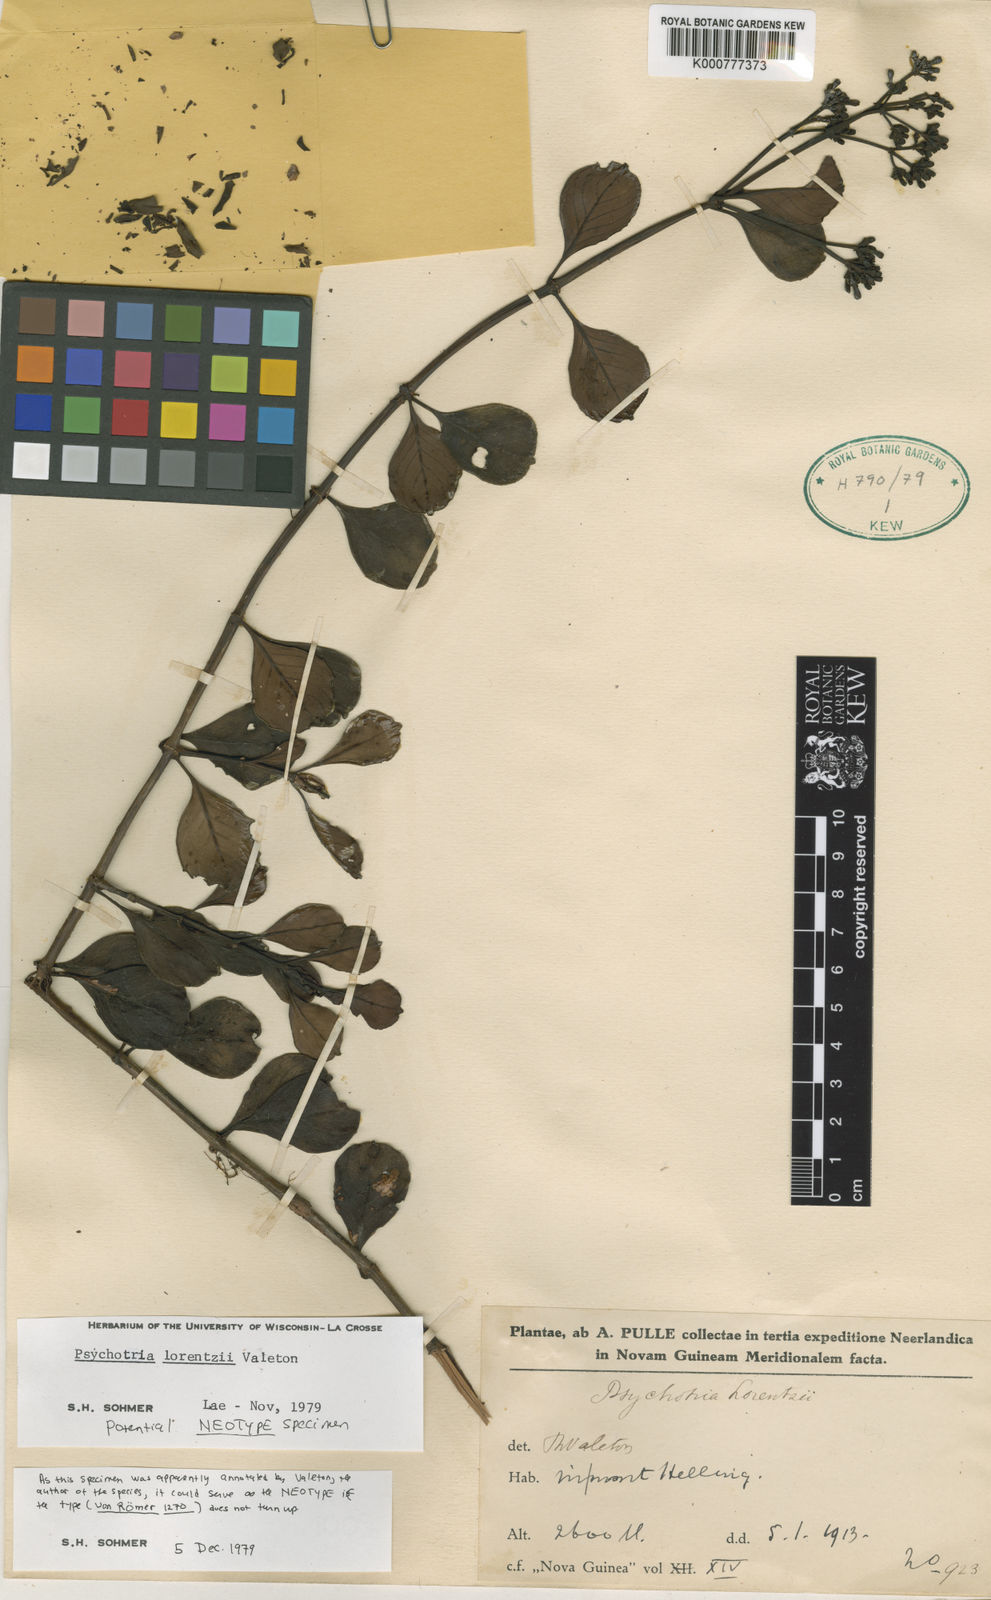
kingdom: Plantae
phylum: Tracheophyta
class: Magnoliopsida
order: Gentianales
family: Rubiaceae
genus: Psychotria
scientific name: Psychotria lorentzii
